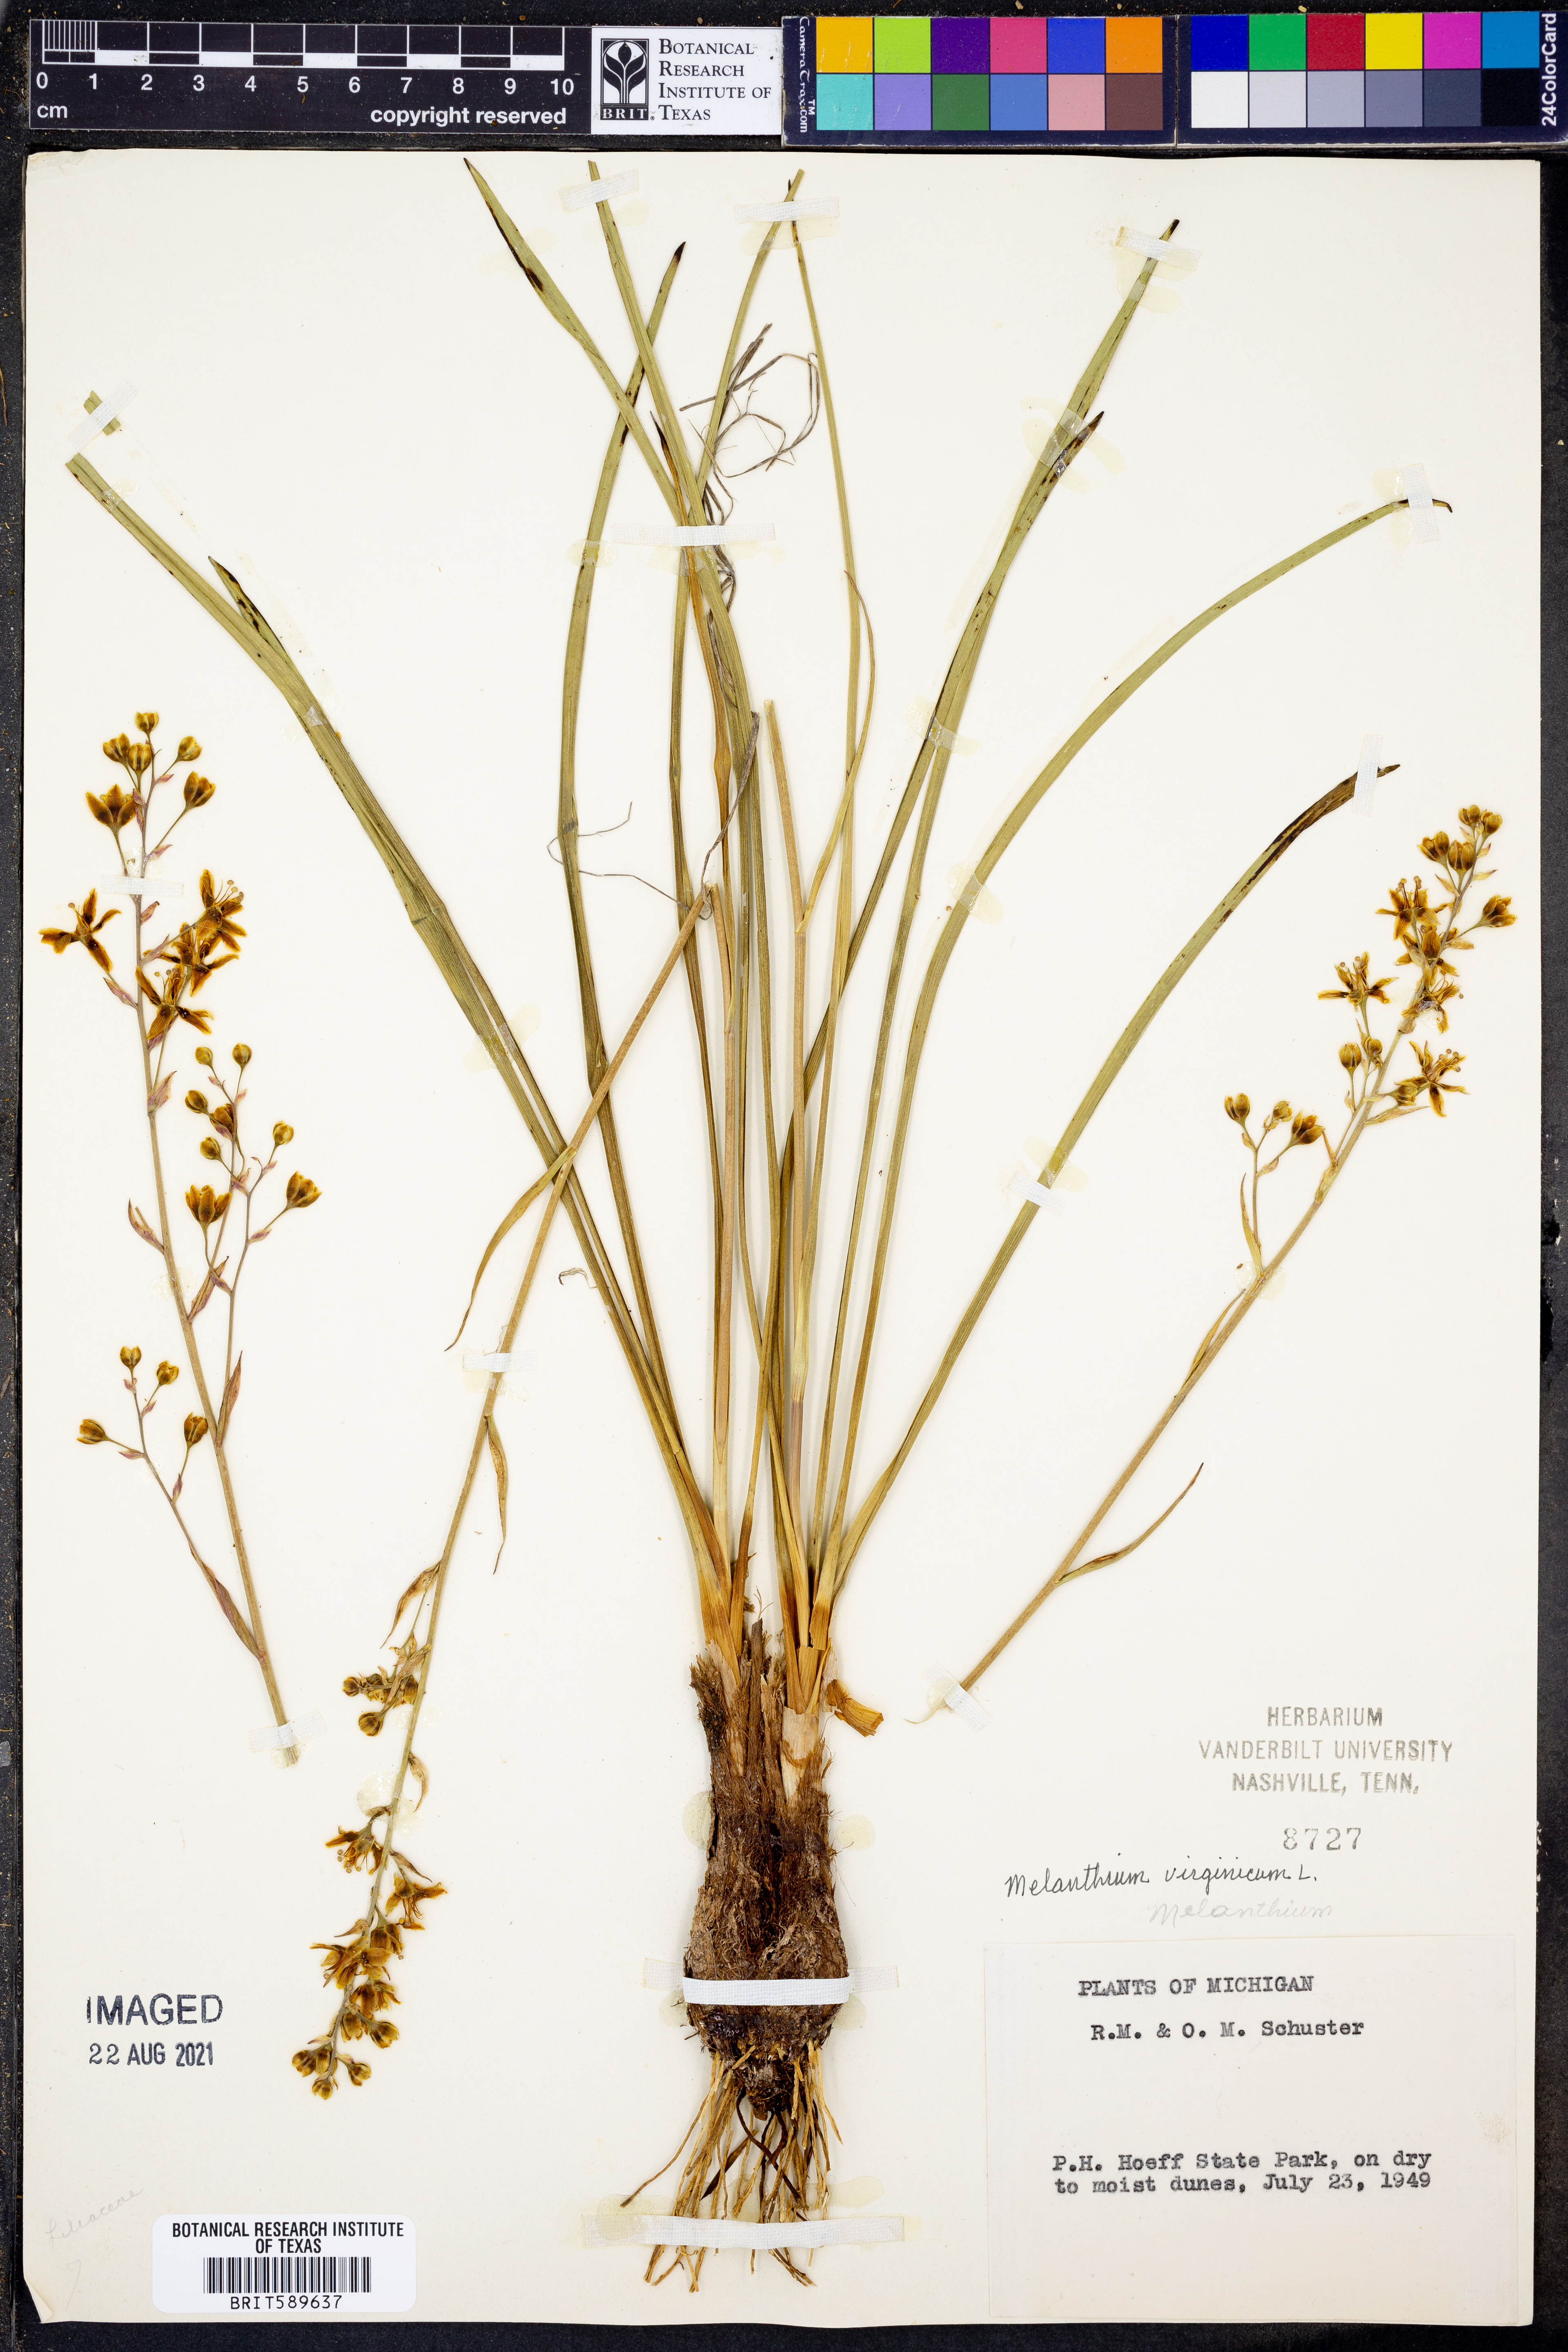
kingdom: Plantae
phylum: Tracheophyta
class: Liliopsida
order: Liliales
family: Melanthiaceae
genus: Melanthium
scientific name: Melanthium virginicum
